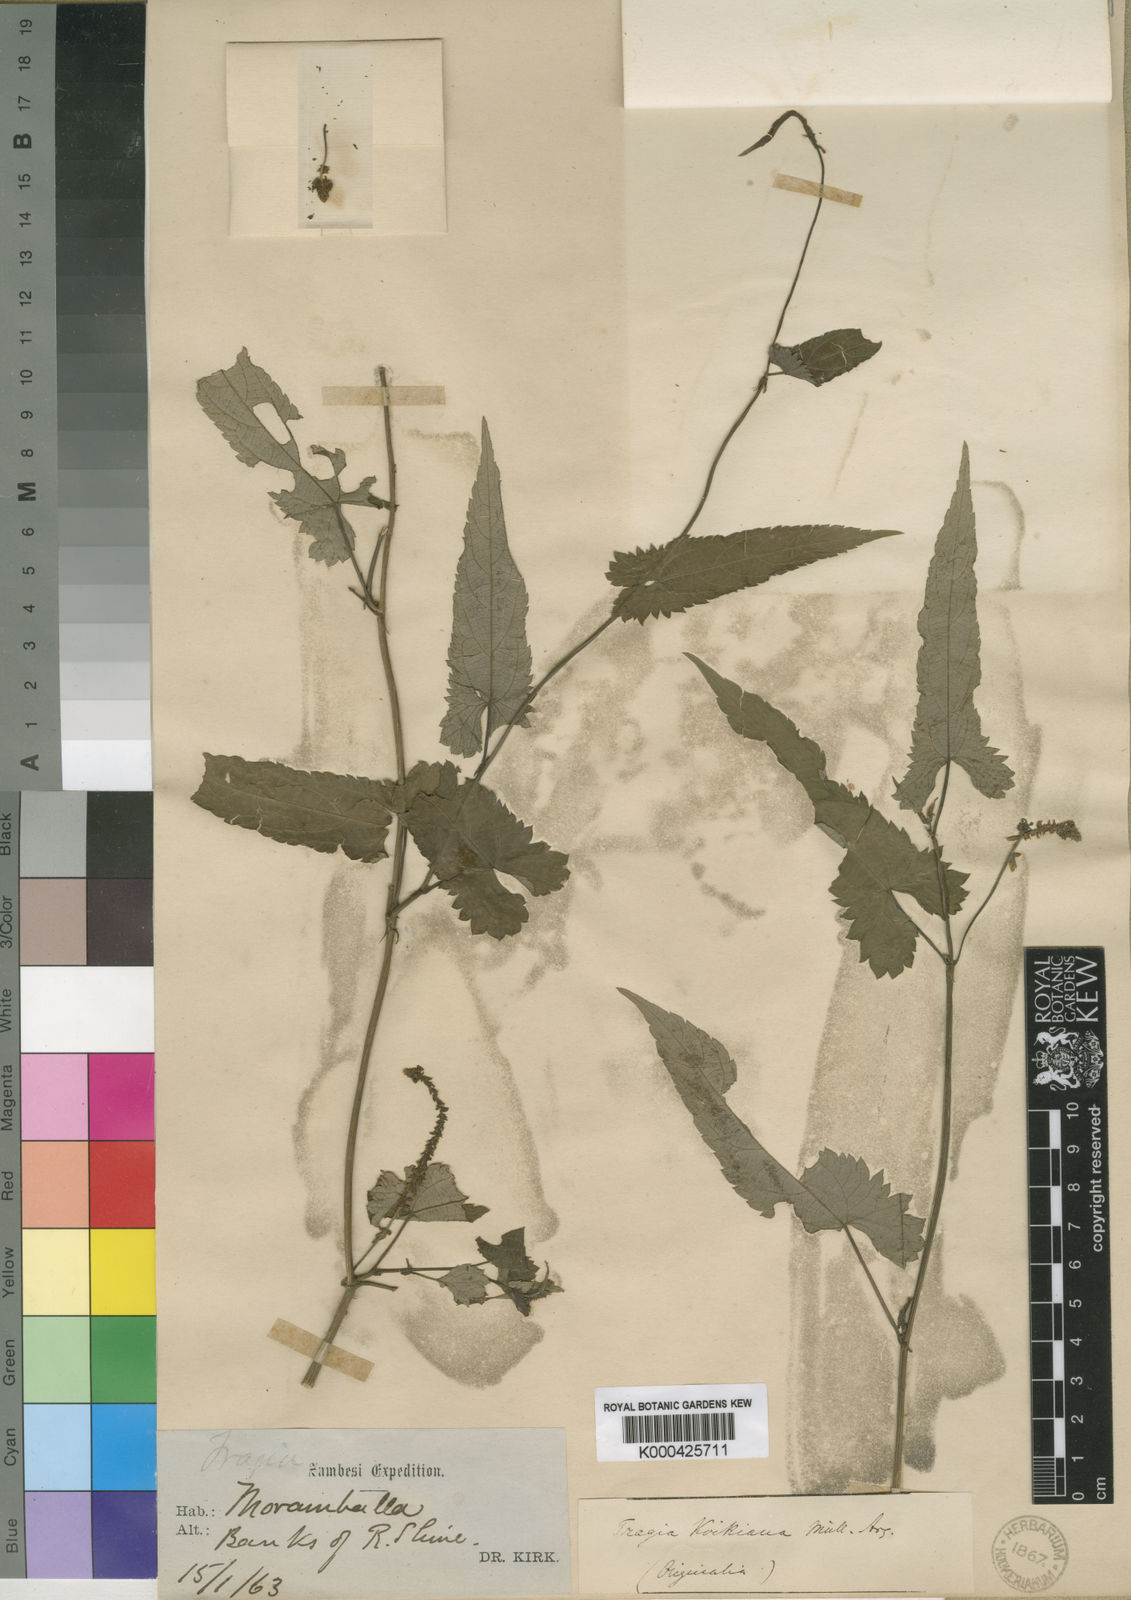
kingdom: Plantae
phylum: Tracheophyta
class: Magnoliopsida
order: Malpighiales
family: Euphorbiaceae
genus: Tragia
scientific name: Tragia
